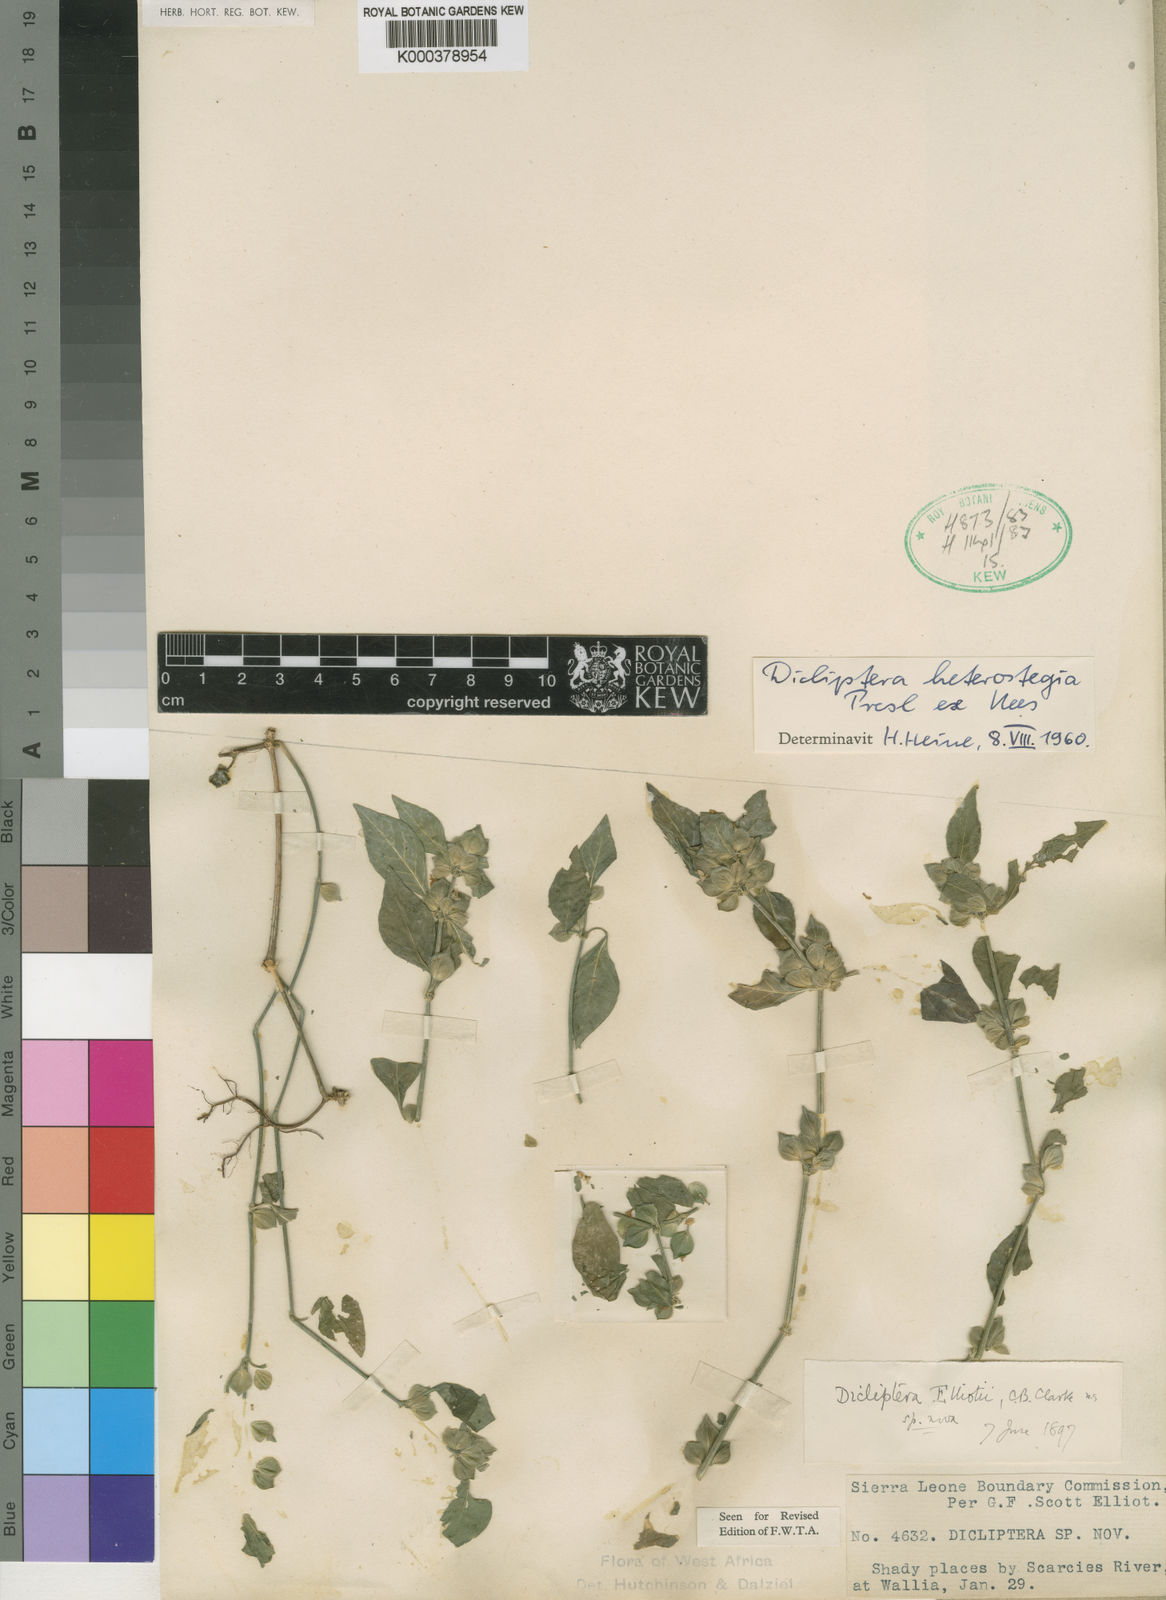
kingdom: Plantae
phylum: Tracheophyta
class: Magnoliopsida
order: Lamiales
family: Acanthaceae
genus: Dicliptera
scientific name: Dicliptera elliotii
